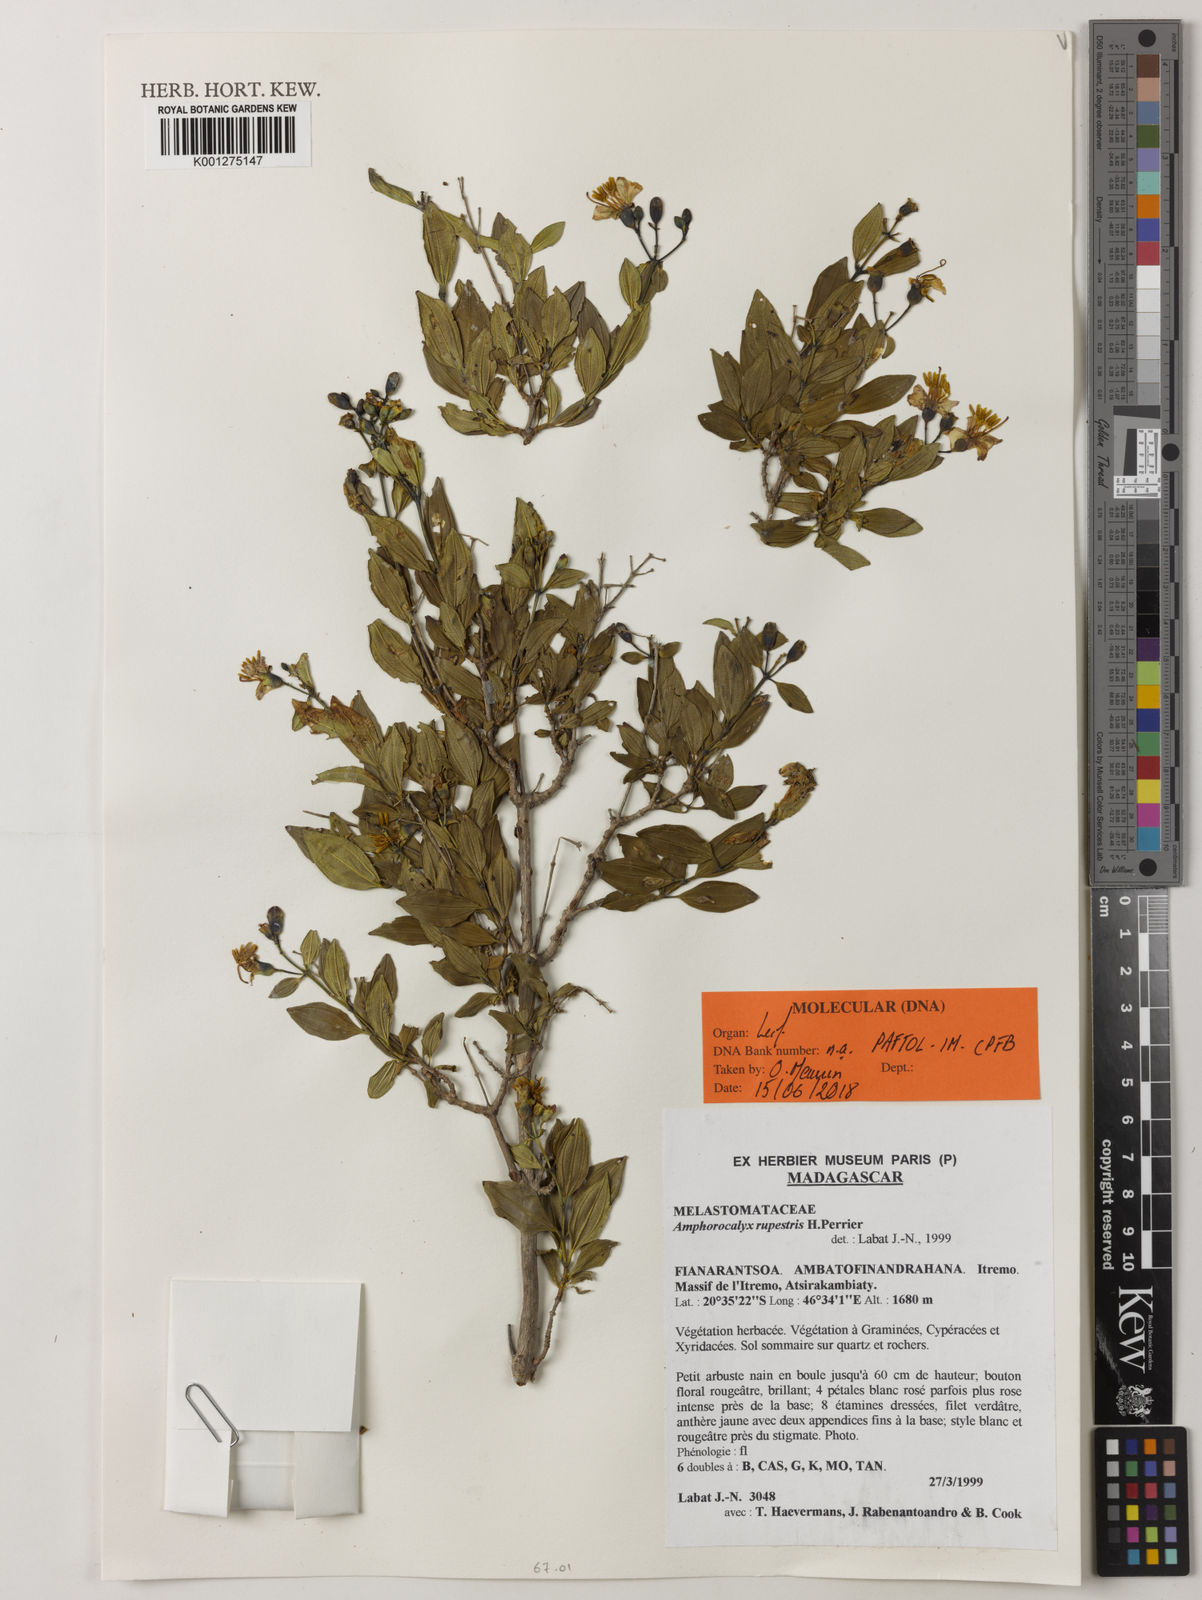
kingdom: Plantae
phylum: Tracheophyta
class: Magnoliopsida
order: Myrtales
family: Melastomataceae
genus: Amphorocalyx
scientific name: Amphorocalyx rupestris
